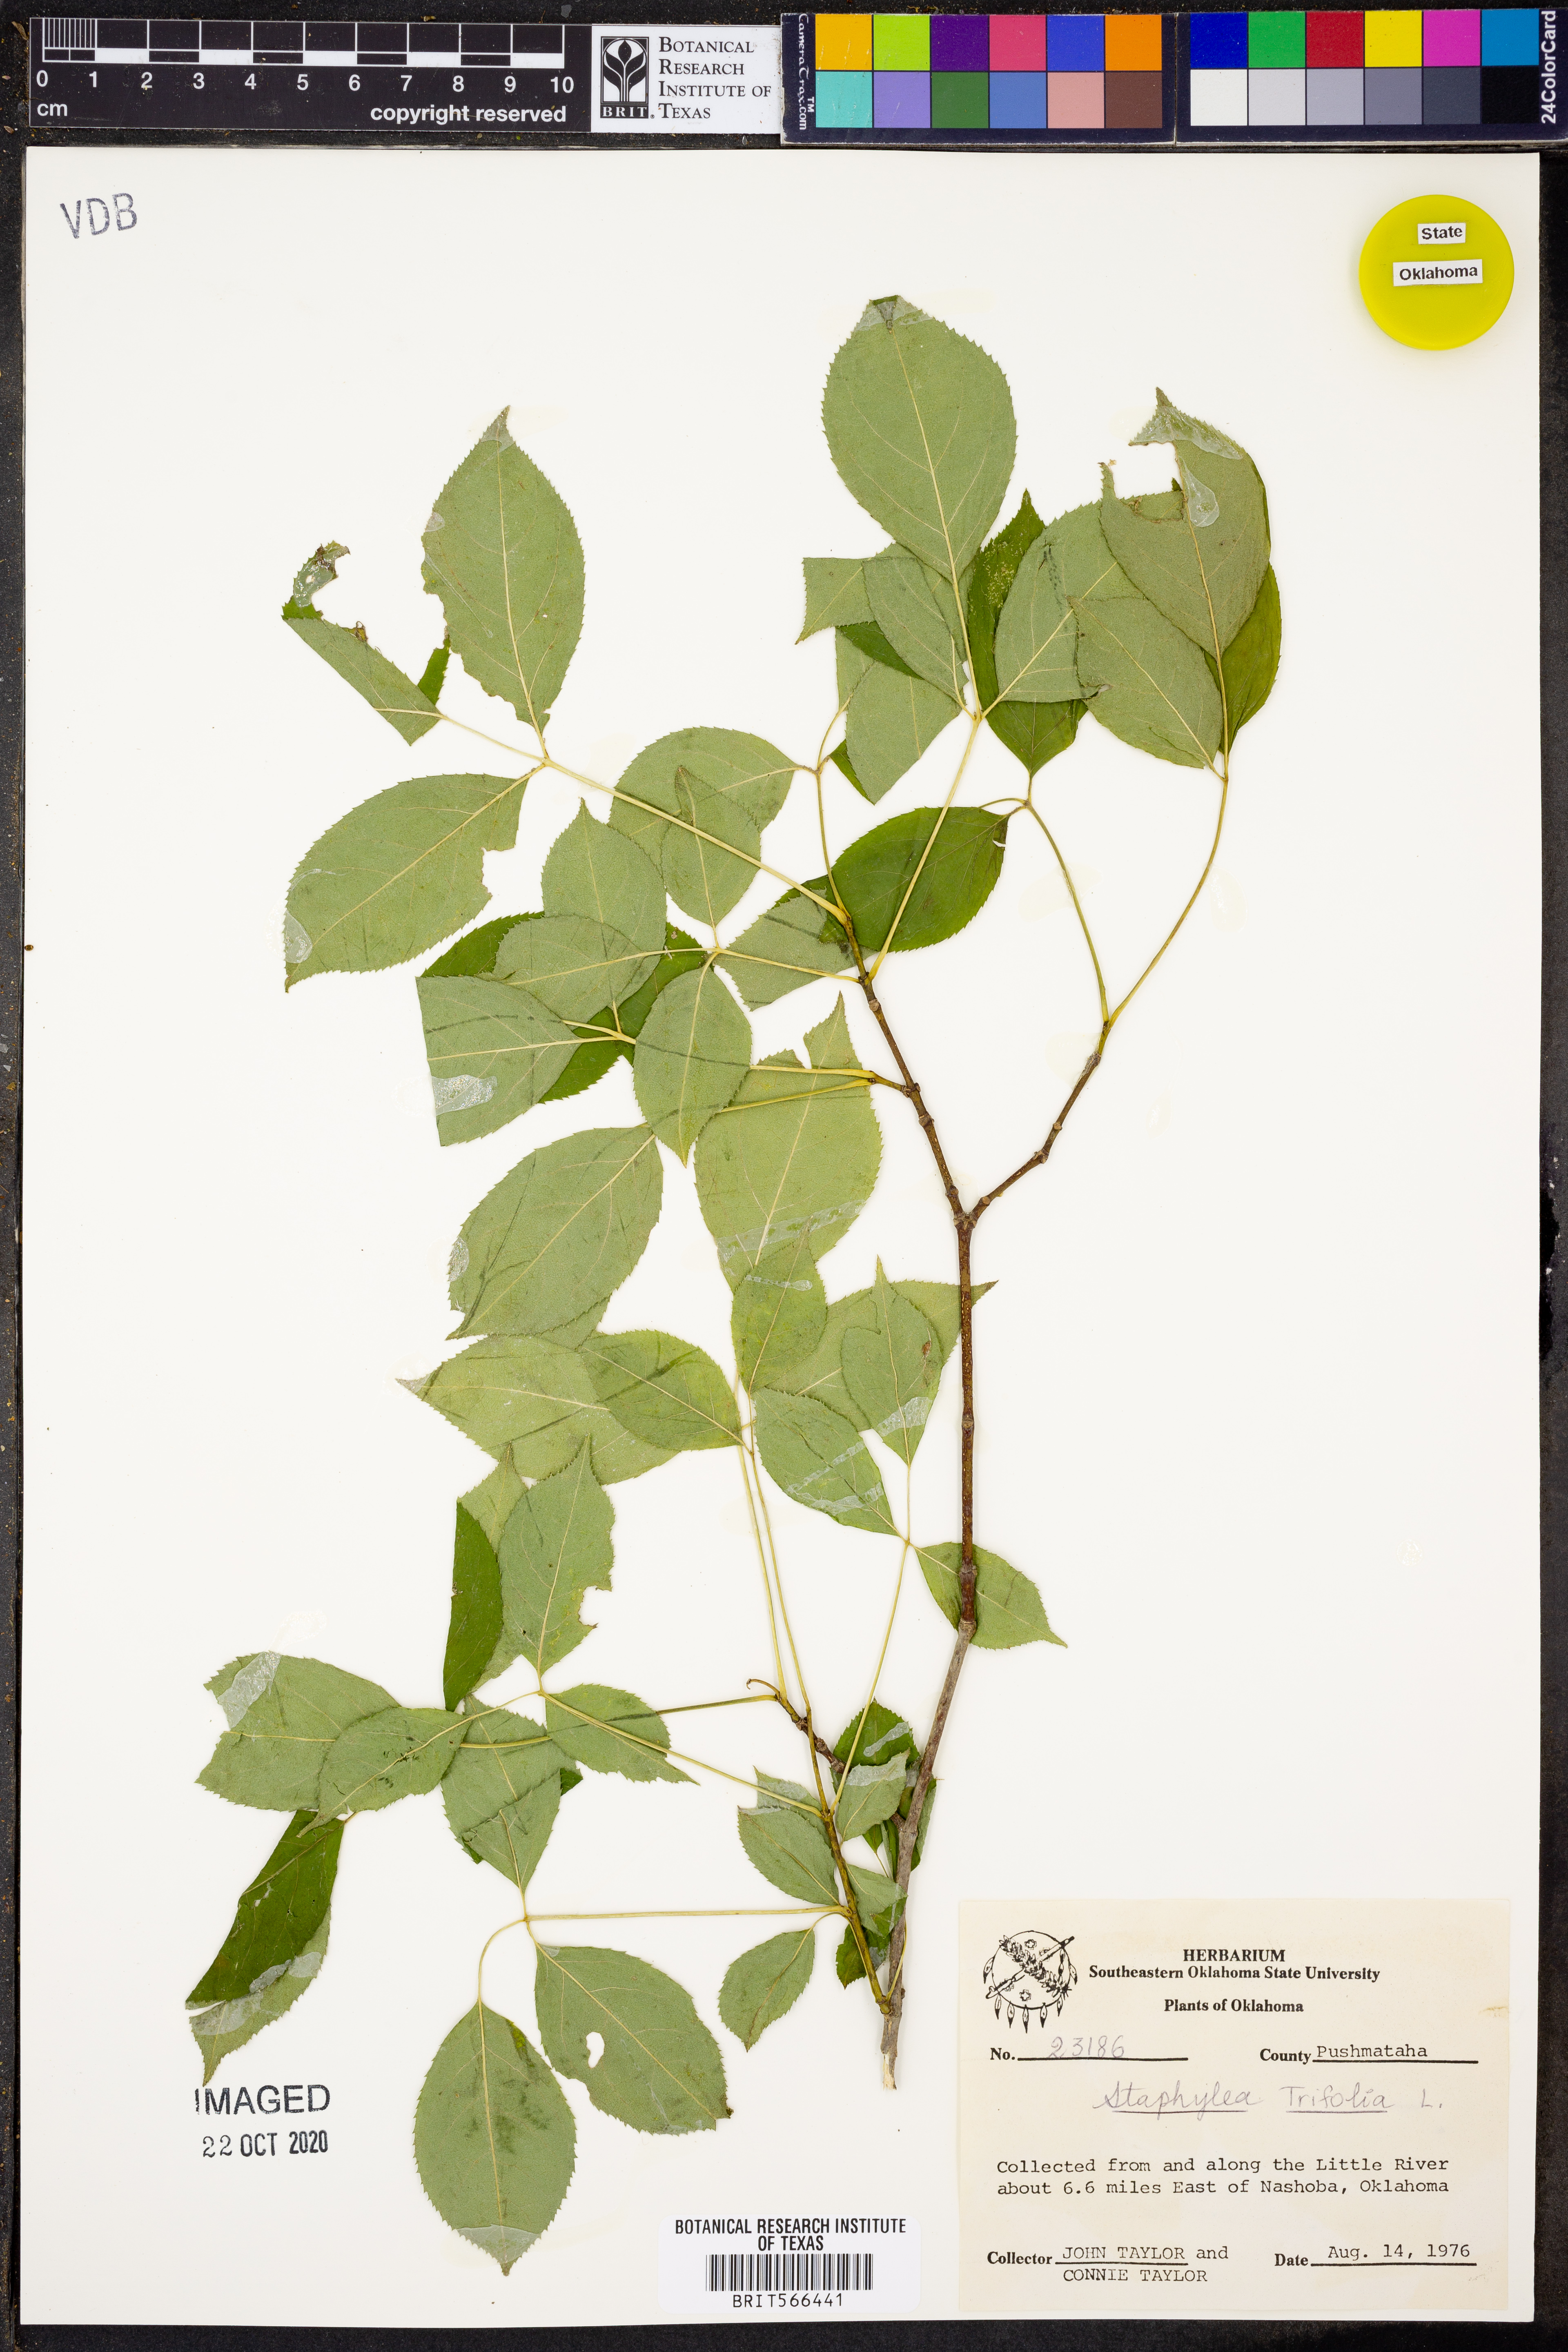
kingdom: Plantae
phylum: Tracheophyta
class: Magnoliopsida
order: Crossosomatales
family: Staphyleaceae
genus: Staphylea
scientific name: Staphylea trifolia
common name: American bladdernut
